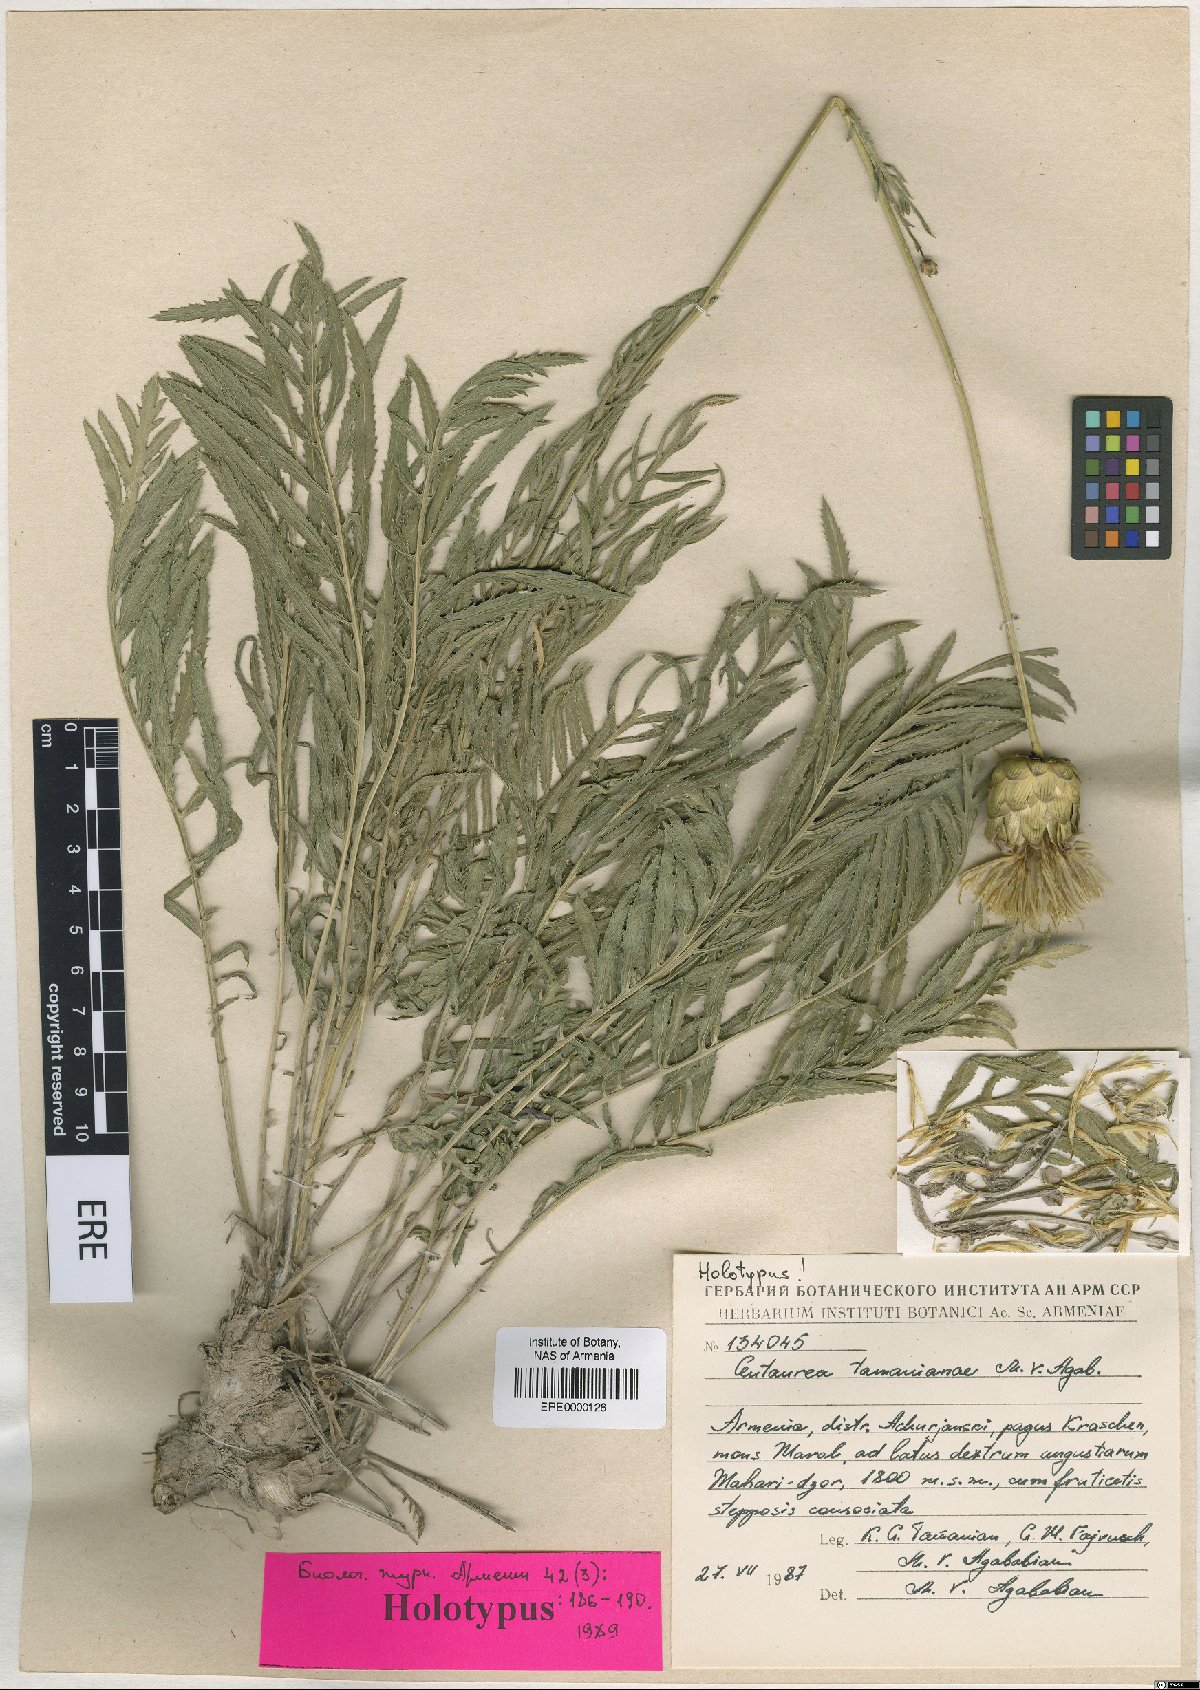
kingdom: Plantae
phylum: Tracheophyta
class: Magnoliopsida
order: Asterales
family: Asteraceae
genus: Rhaponticoides
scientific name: Rhaponticoides tamanianae
